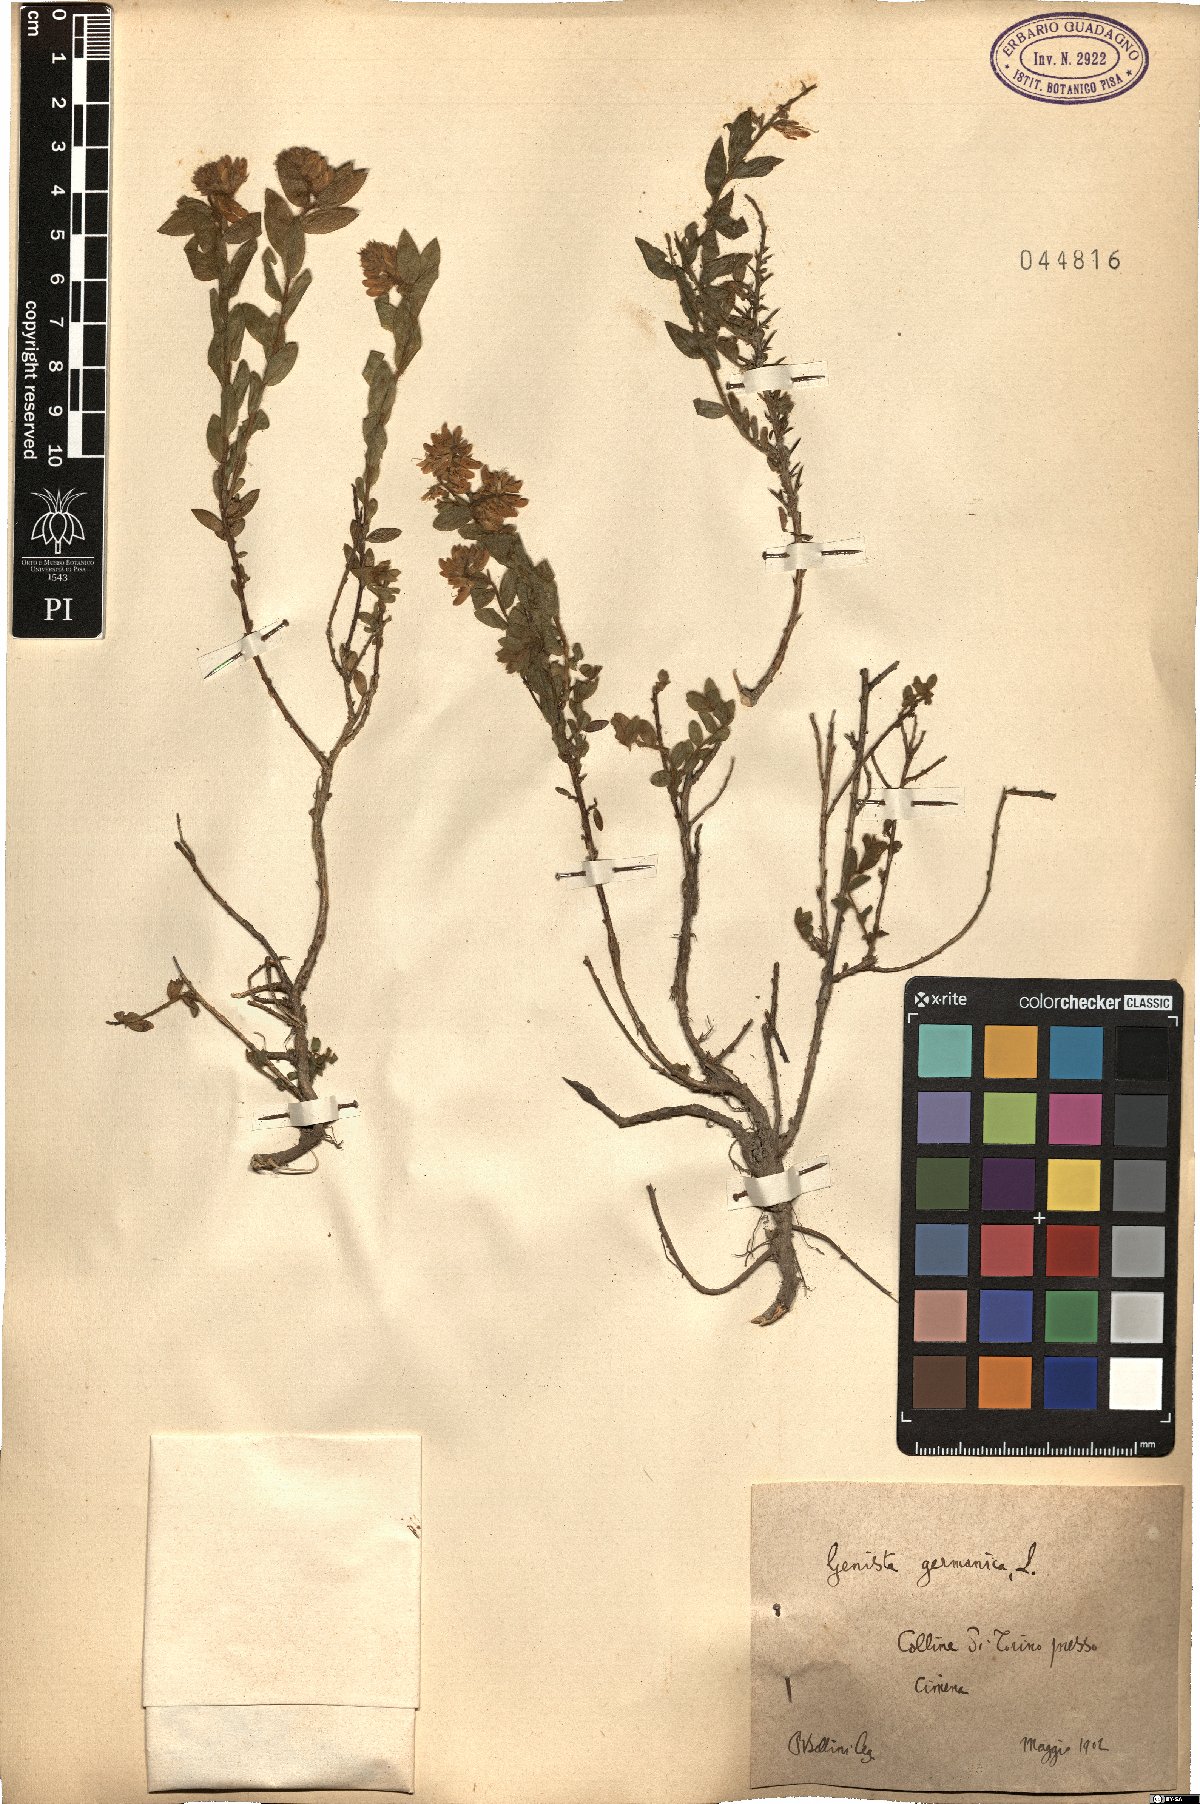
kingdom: Plantae
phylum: Tracheophyta
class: Magnoliopsida
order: Fabales
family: Fabaceae
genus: Genista
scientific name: Genista germanica
